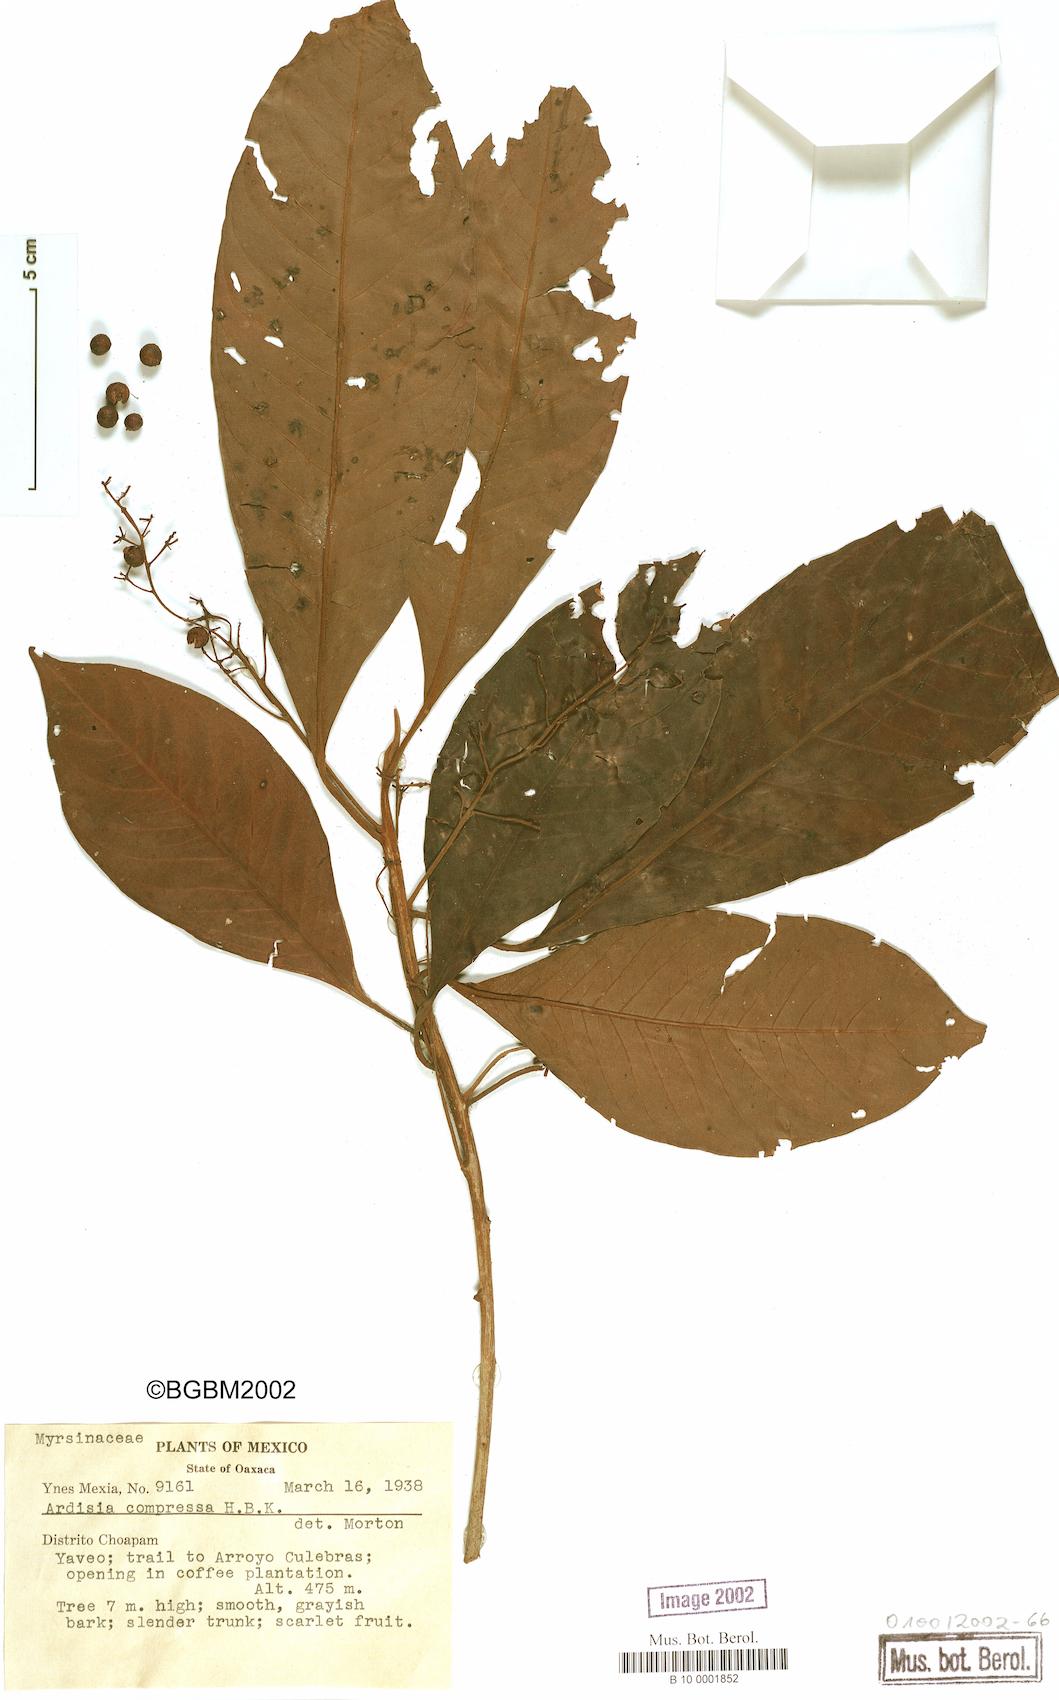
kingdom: Plantae
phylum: Tracheophyta
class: Magnoliopsida
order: Ericales
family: Primulaceae
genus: Ardisia
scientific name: Ardisia compressa
